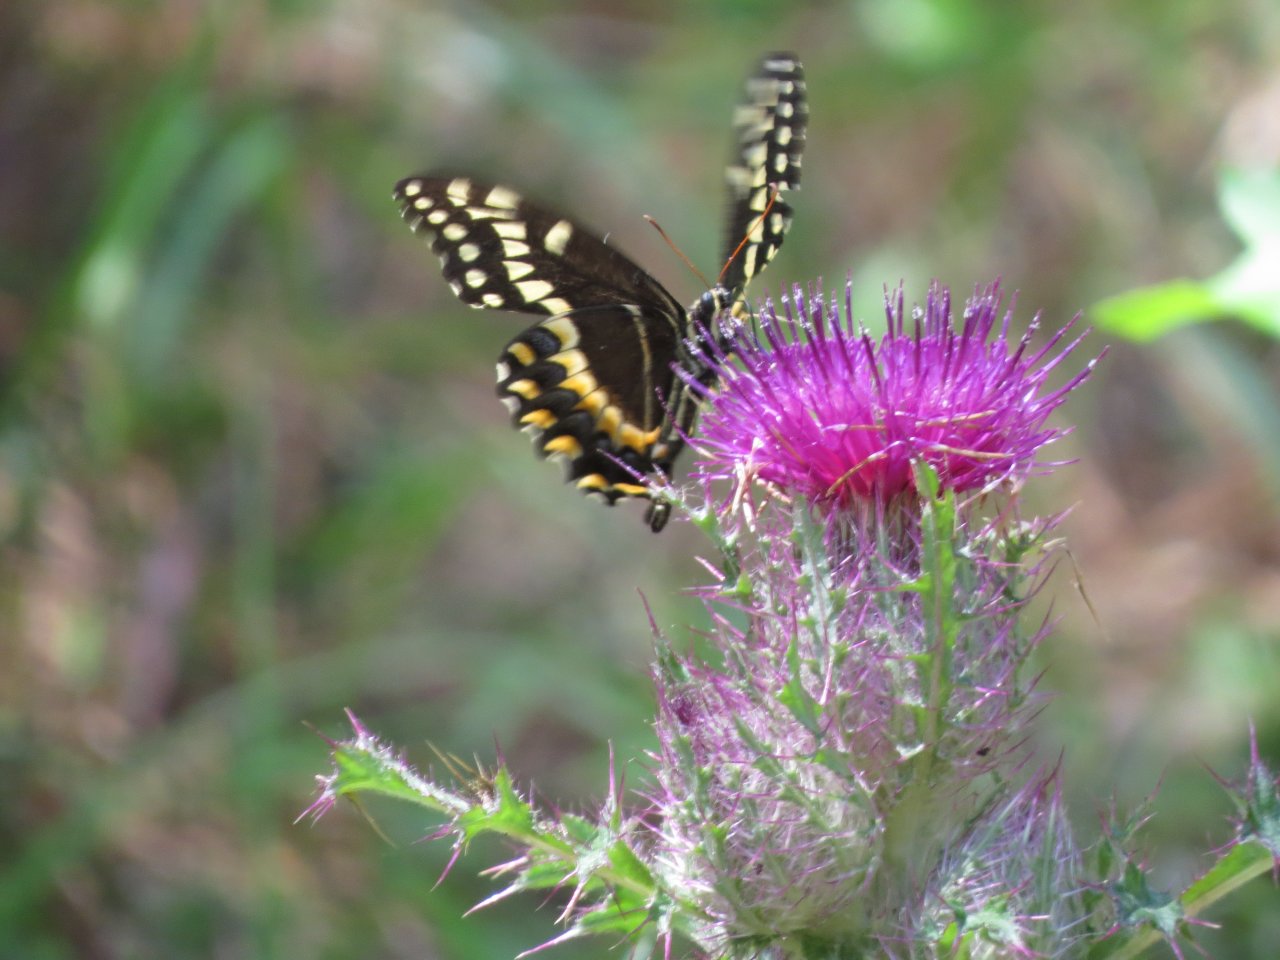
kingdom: Animalia
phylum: Arthropoda
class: Insecta
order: Lepidoptera
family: Papilionidae
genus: Pterourus
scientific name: Pterourus palamedes
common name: Palamedes Swallowtail
